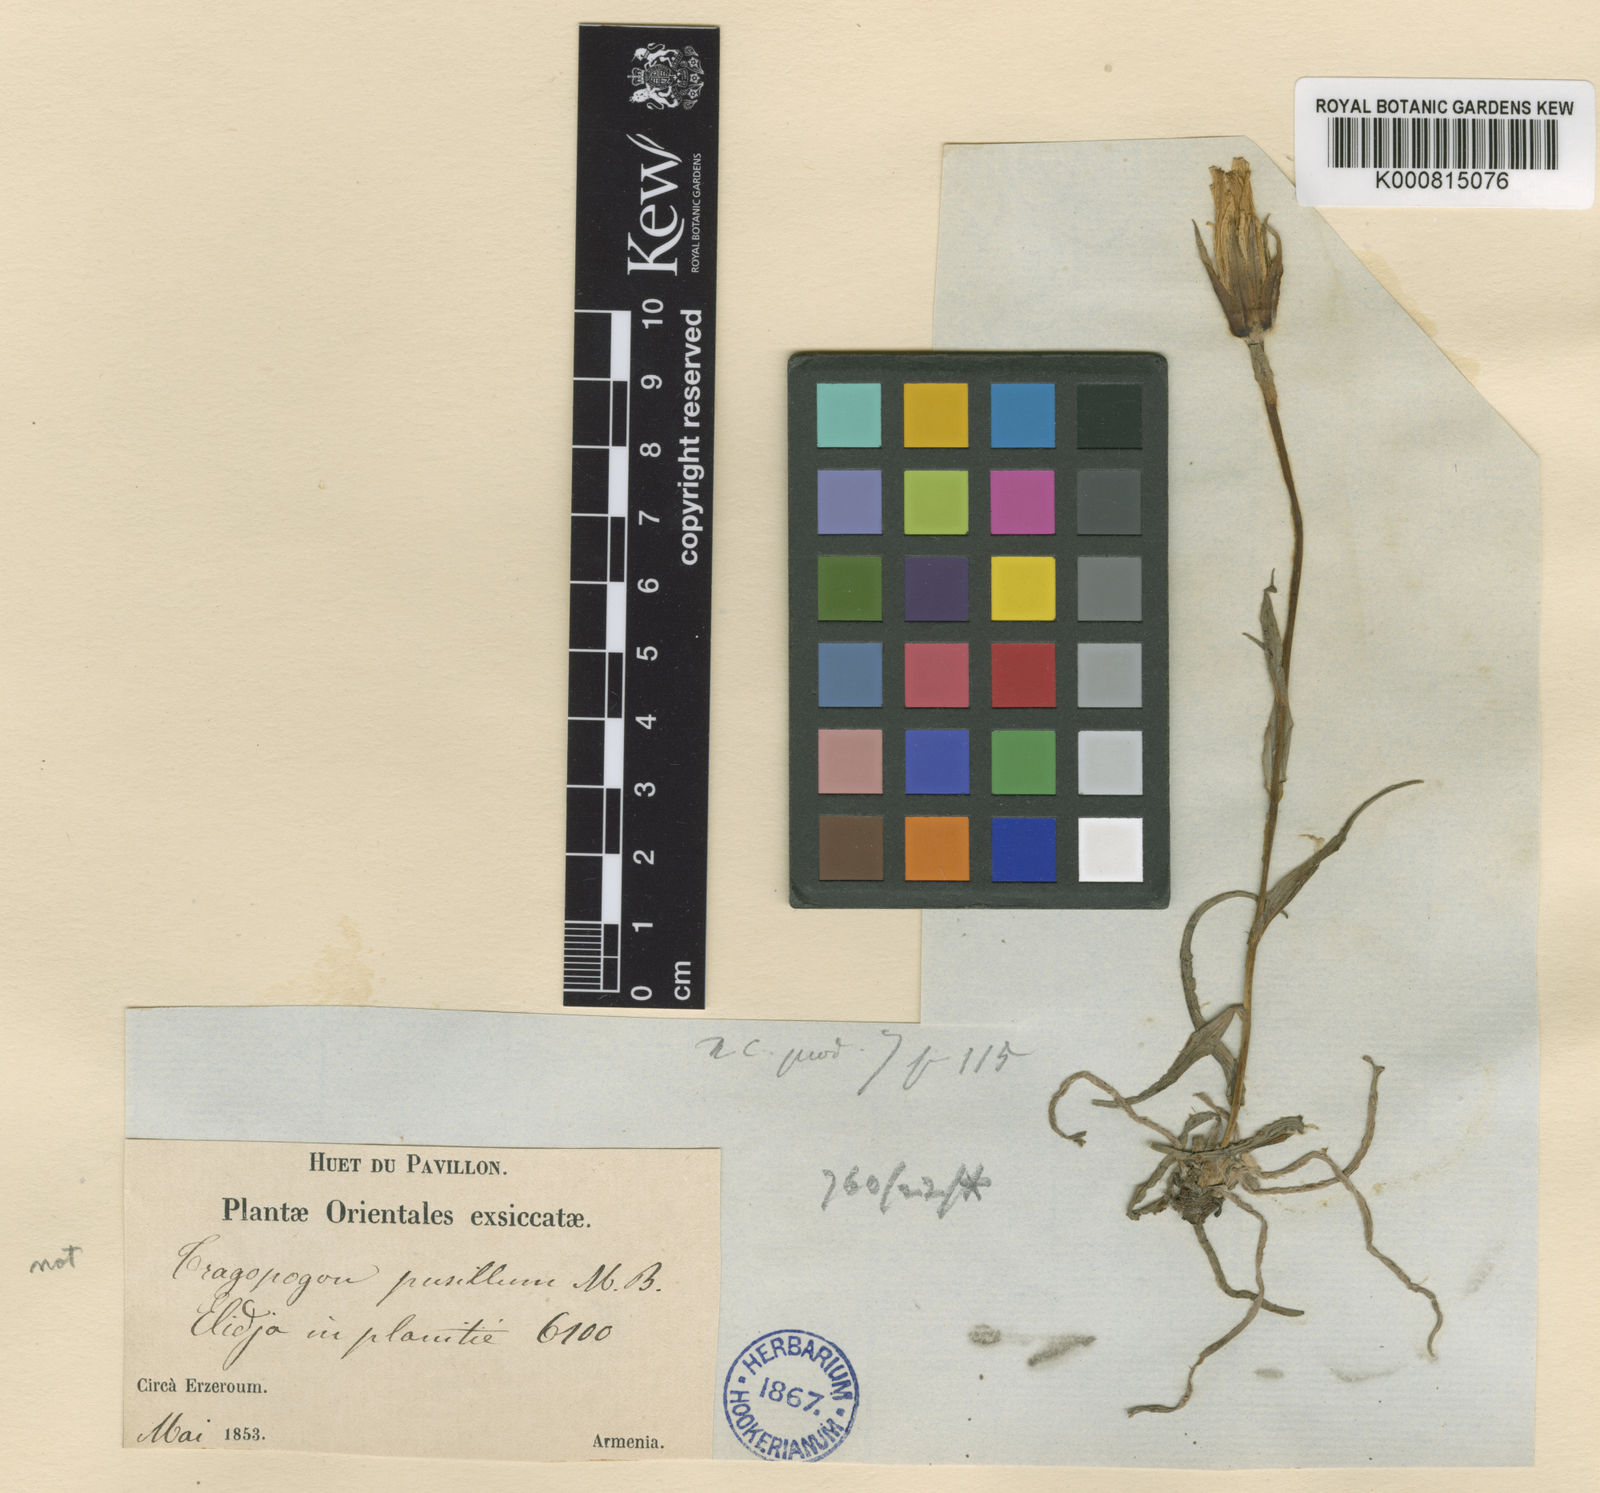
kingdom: Plantae
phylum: Tracheophyta
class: Magnoliopsida
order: Asterales
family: Asteraceae
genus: Tragopogon
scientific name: Tragopogon reticulatus
